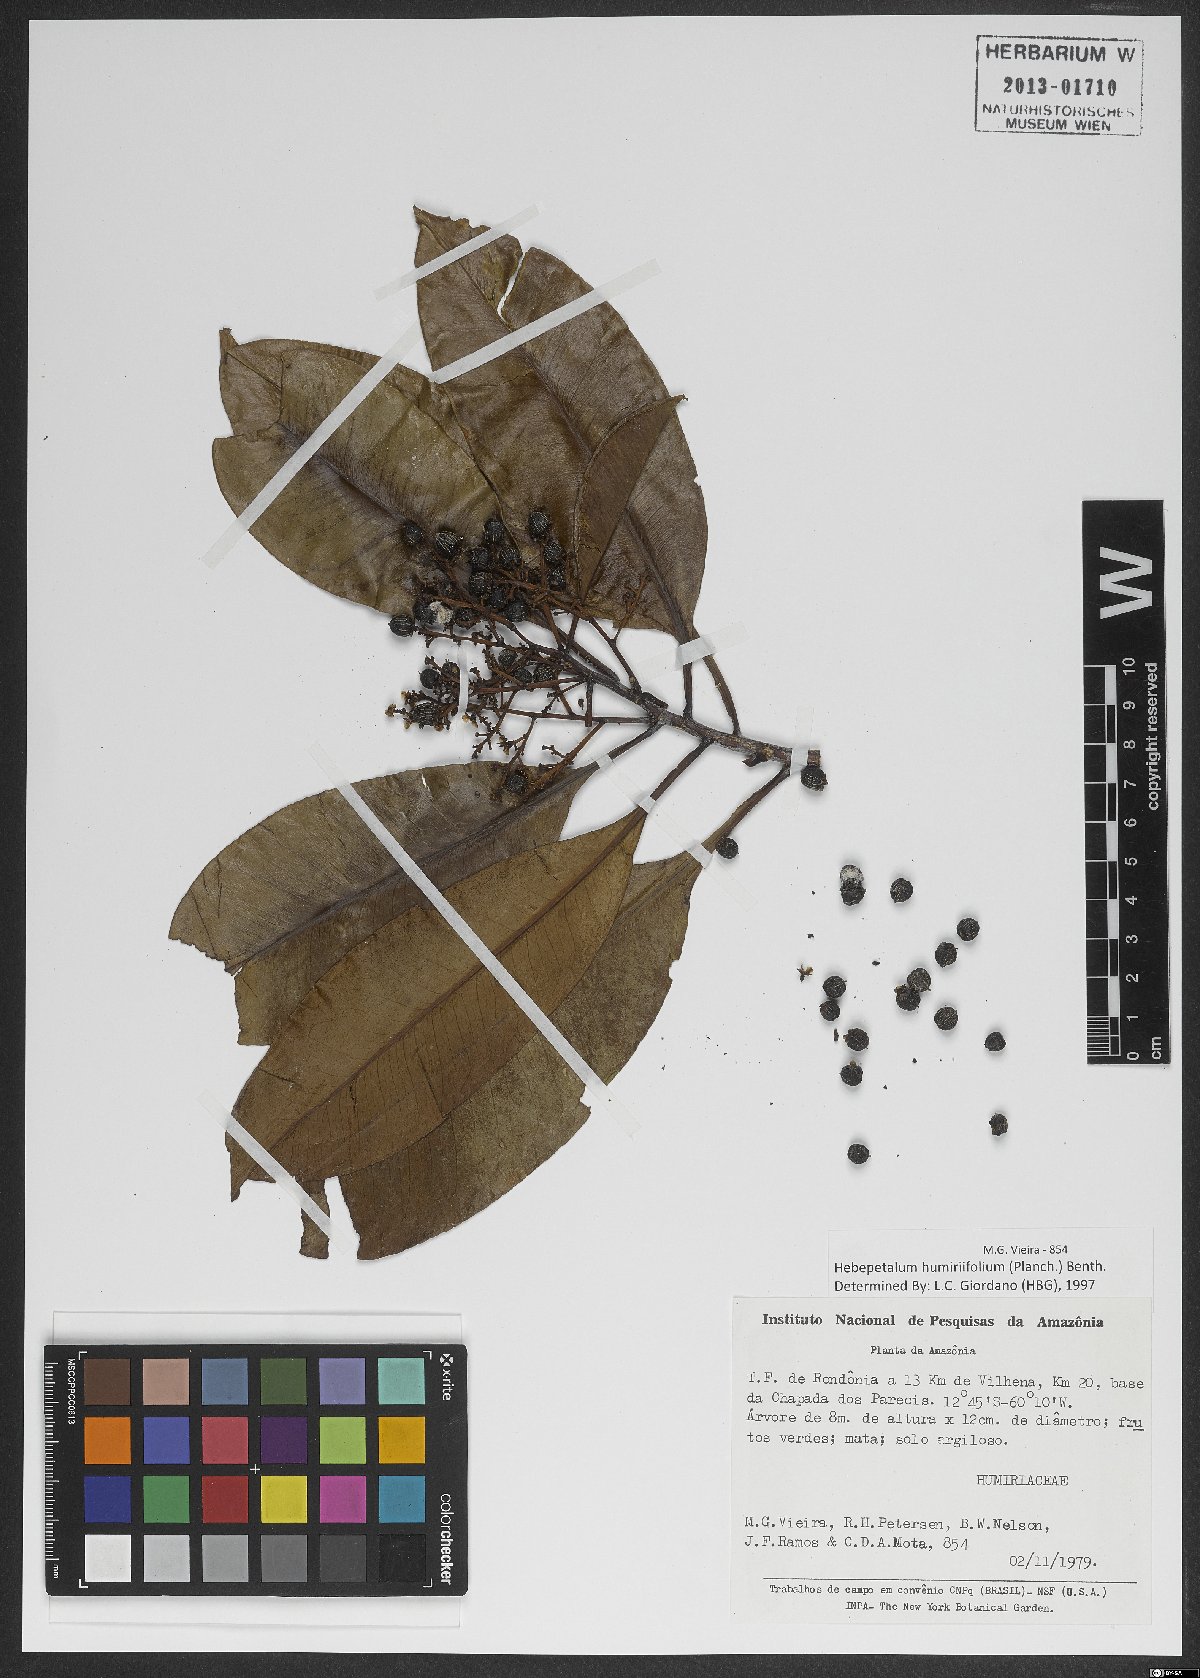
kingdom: Plantae
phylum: Tracheophyta
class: Magnoliopsida
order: Malpighiales
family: Linaceae
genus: Hebepetalum
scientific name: Hebepetalum humiriifolium
